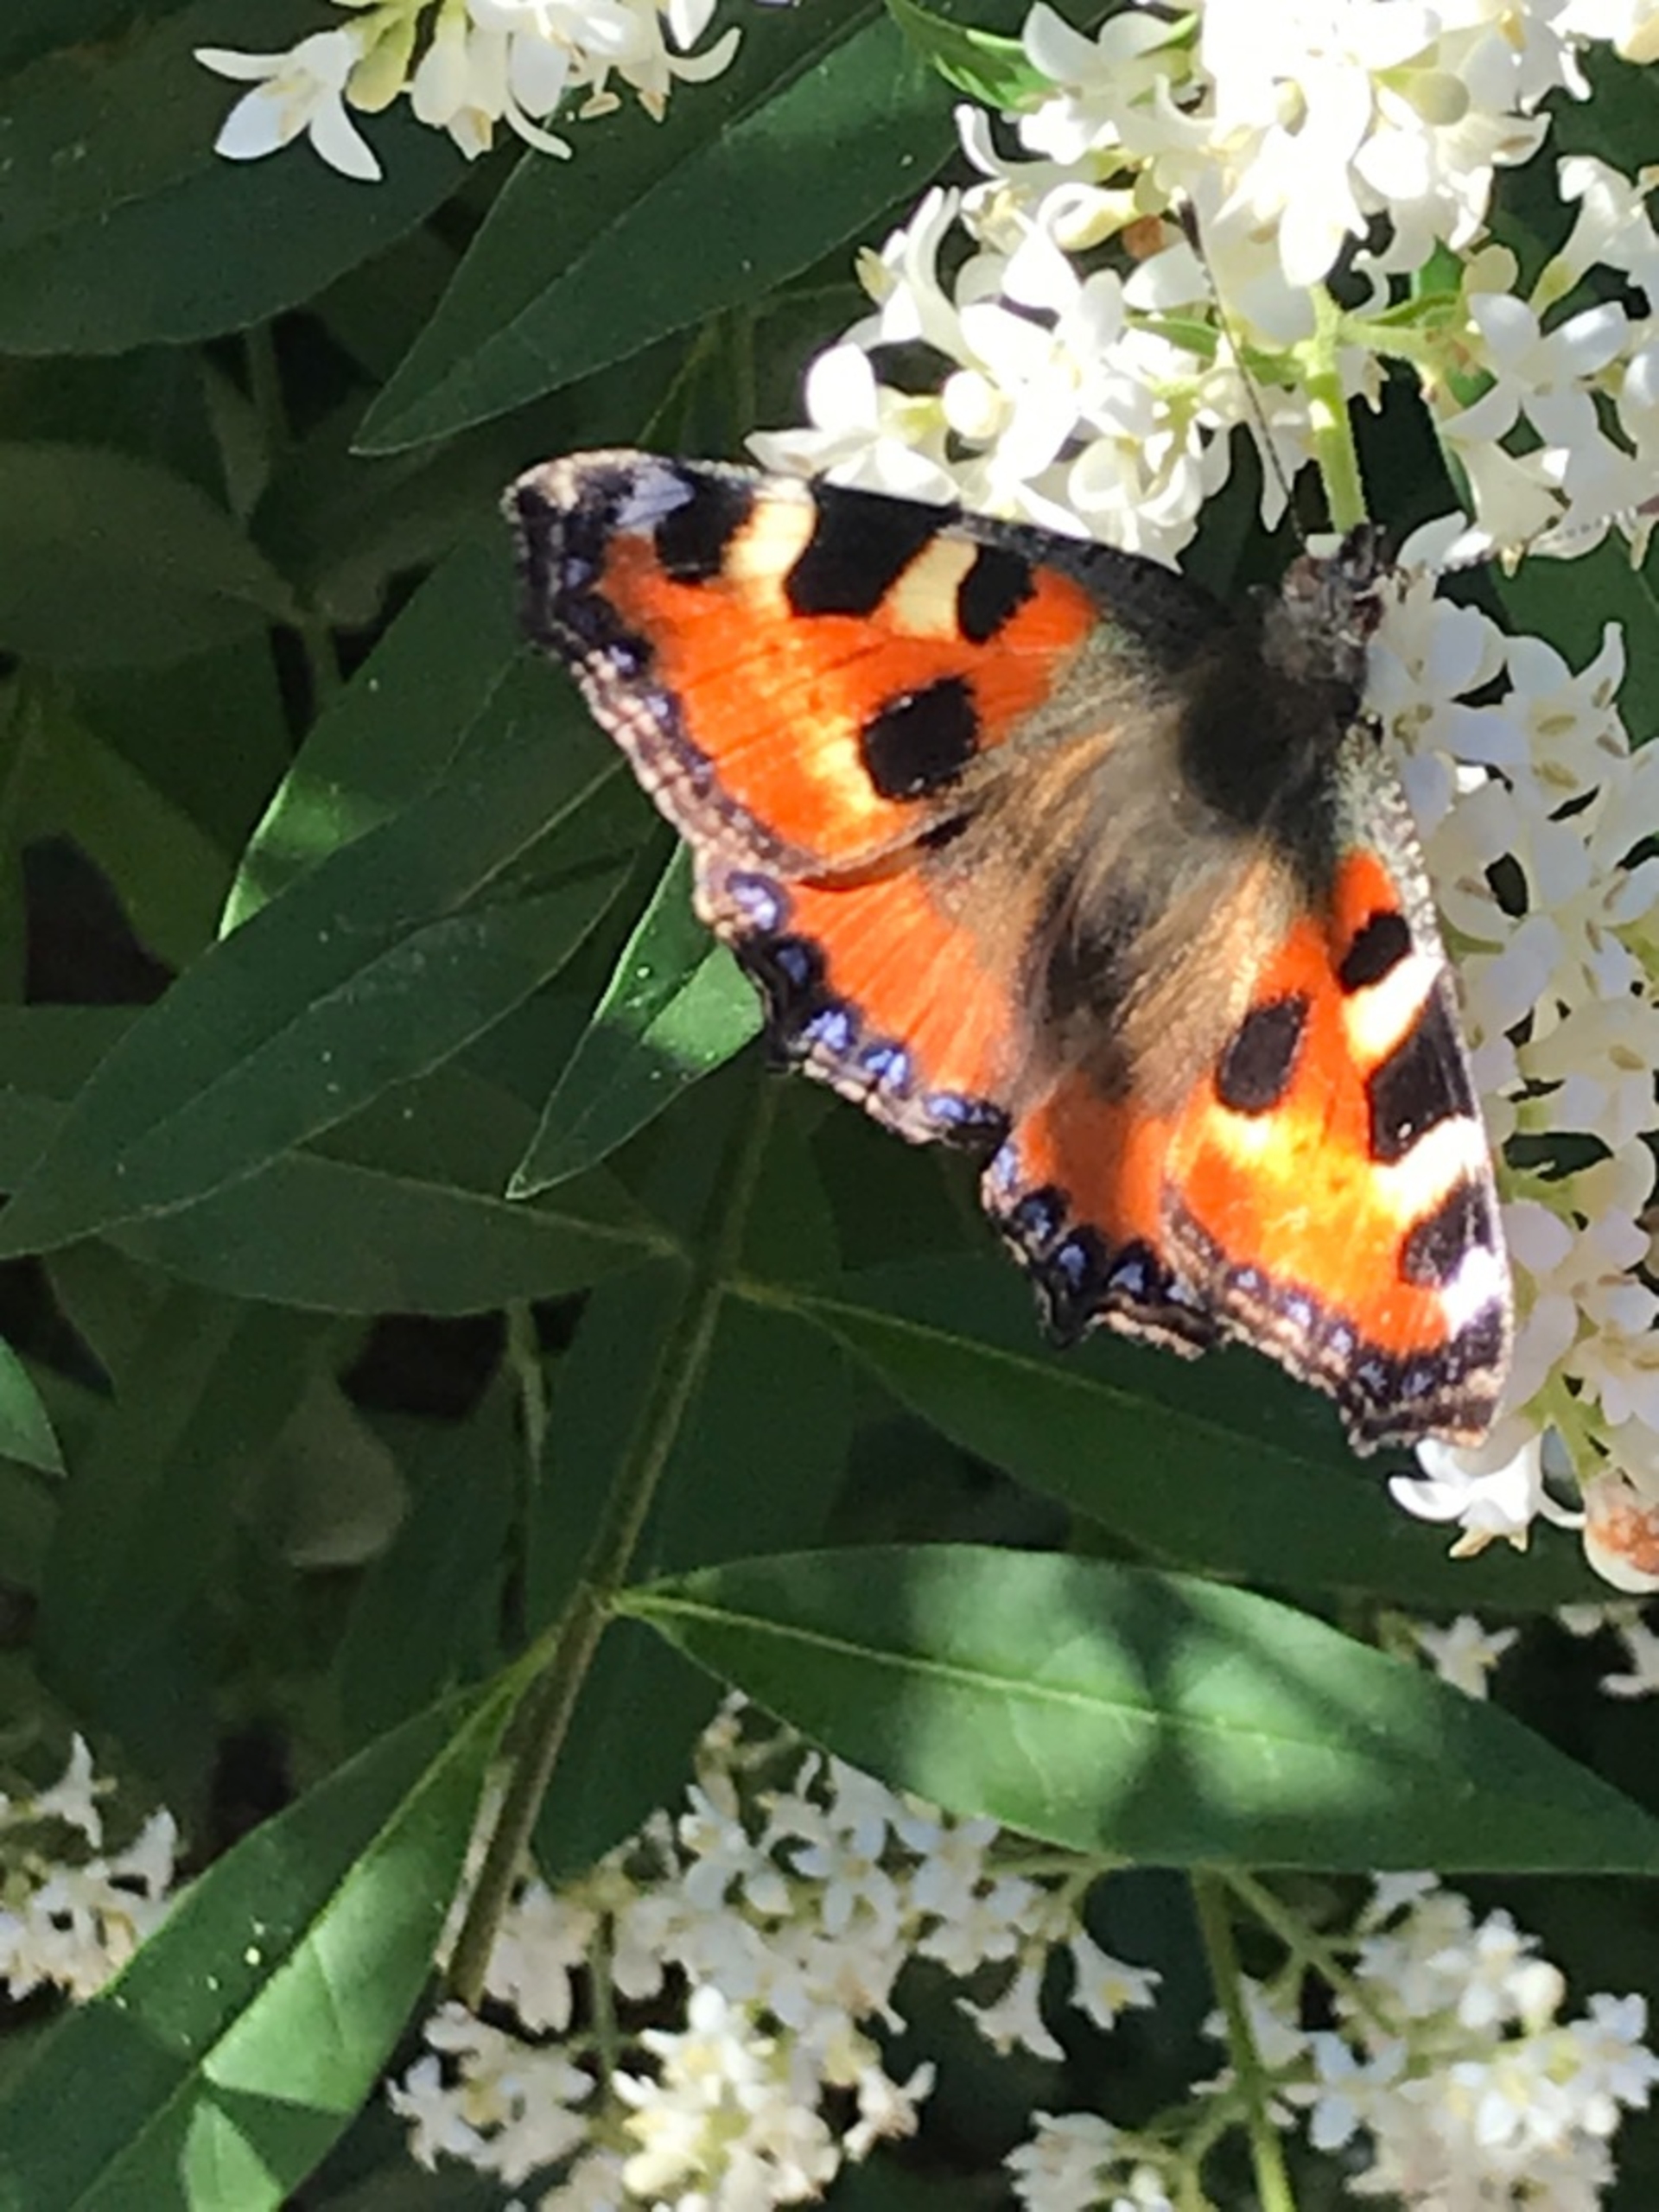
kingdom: Animalia
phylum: Arthropoda
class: Insecta
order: Lepidoptera
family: Nymphalidae
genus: Aglais
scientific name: Aglais urticae
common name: Nældens takvinge
